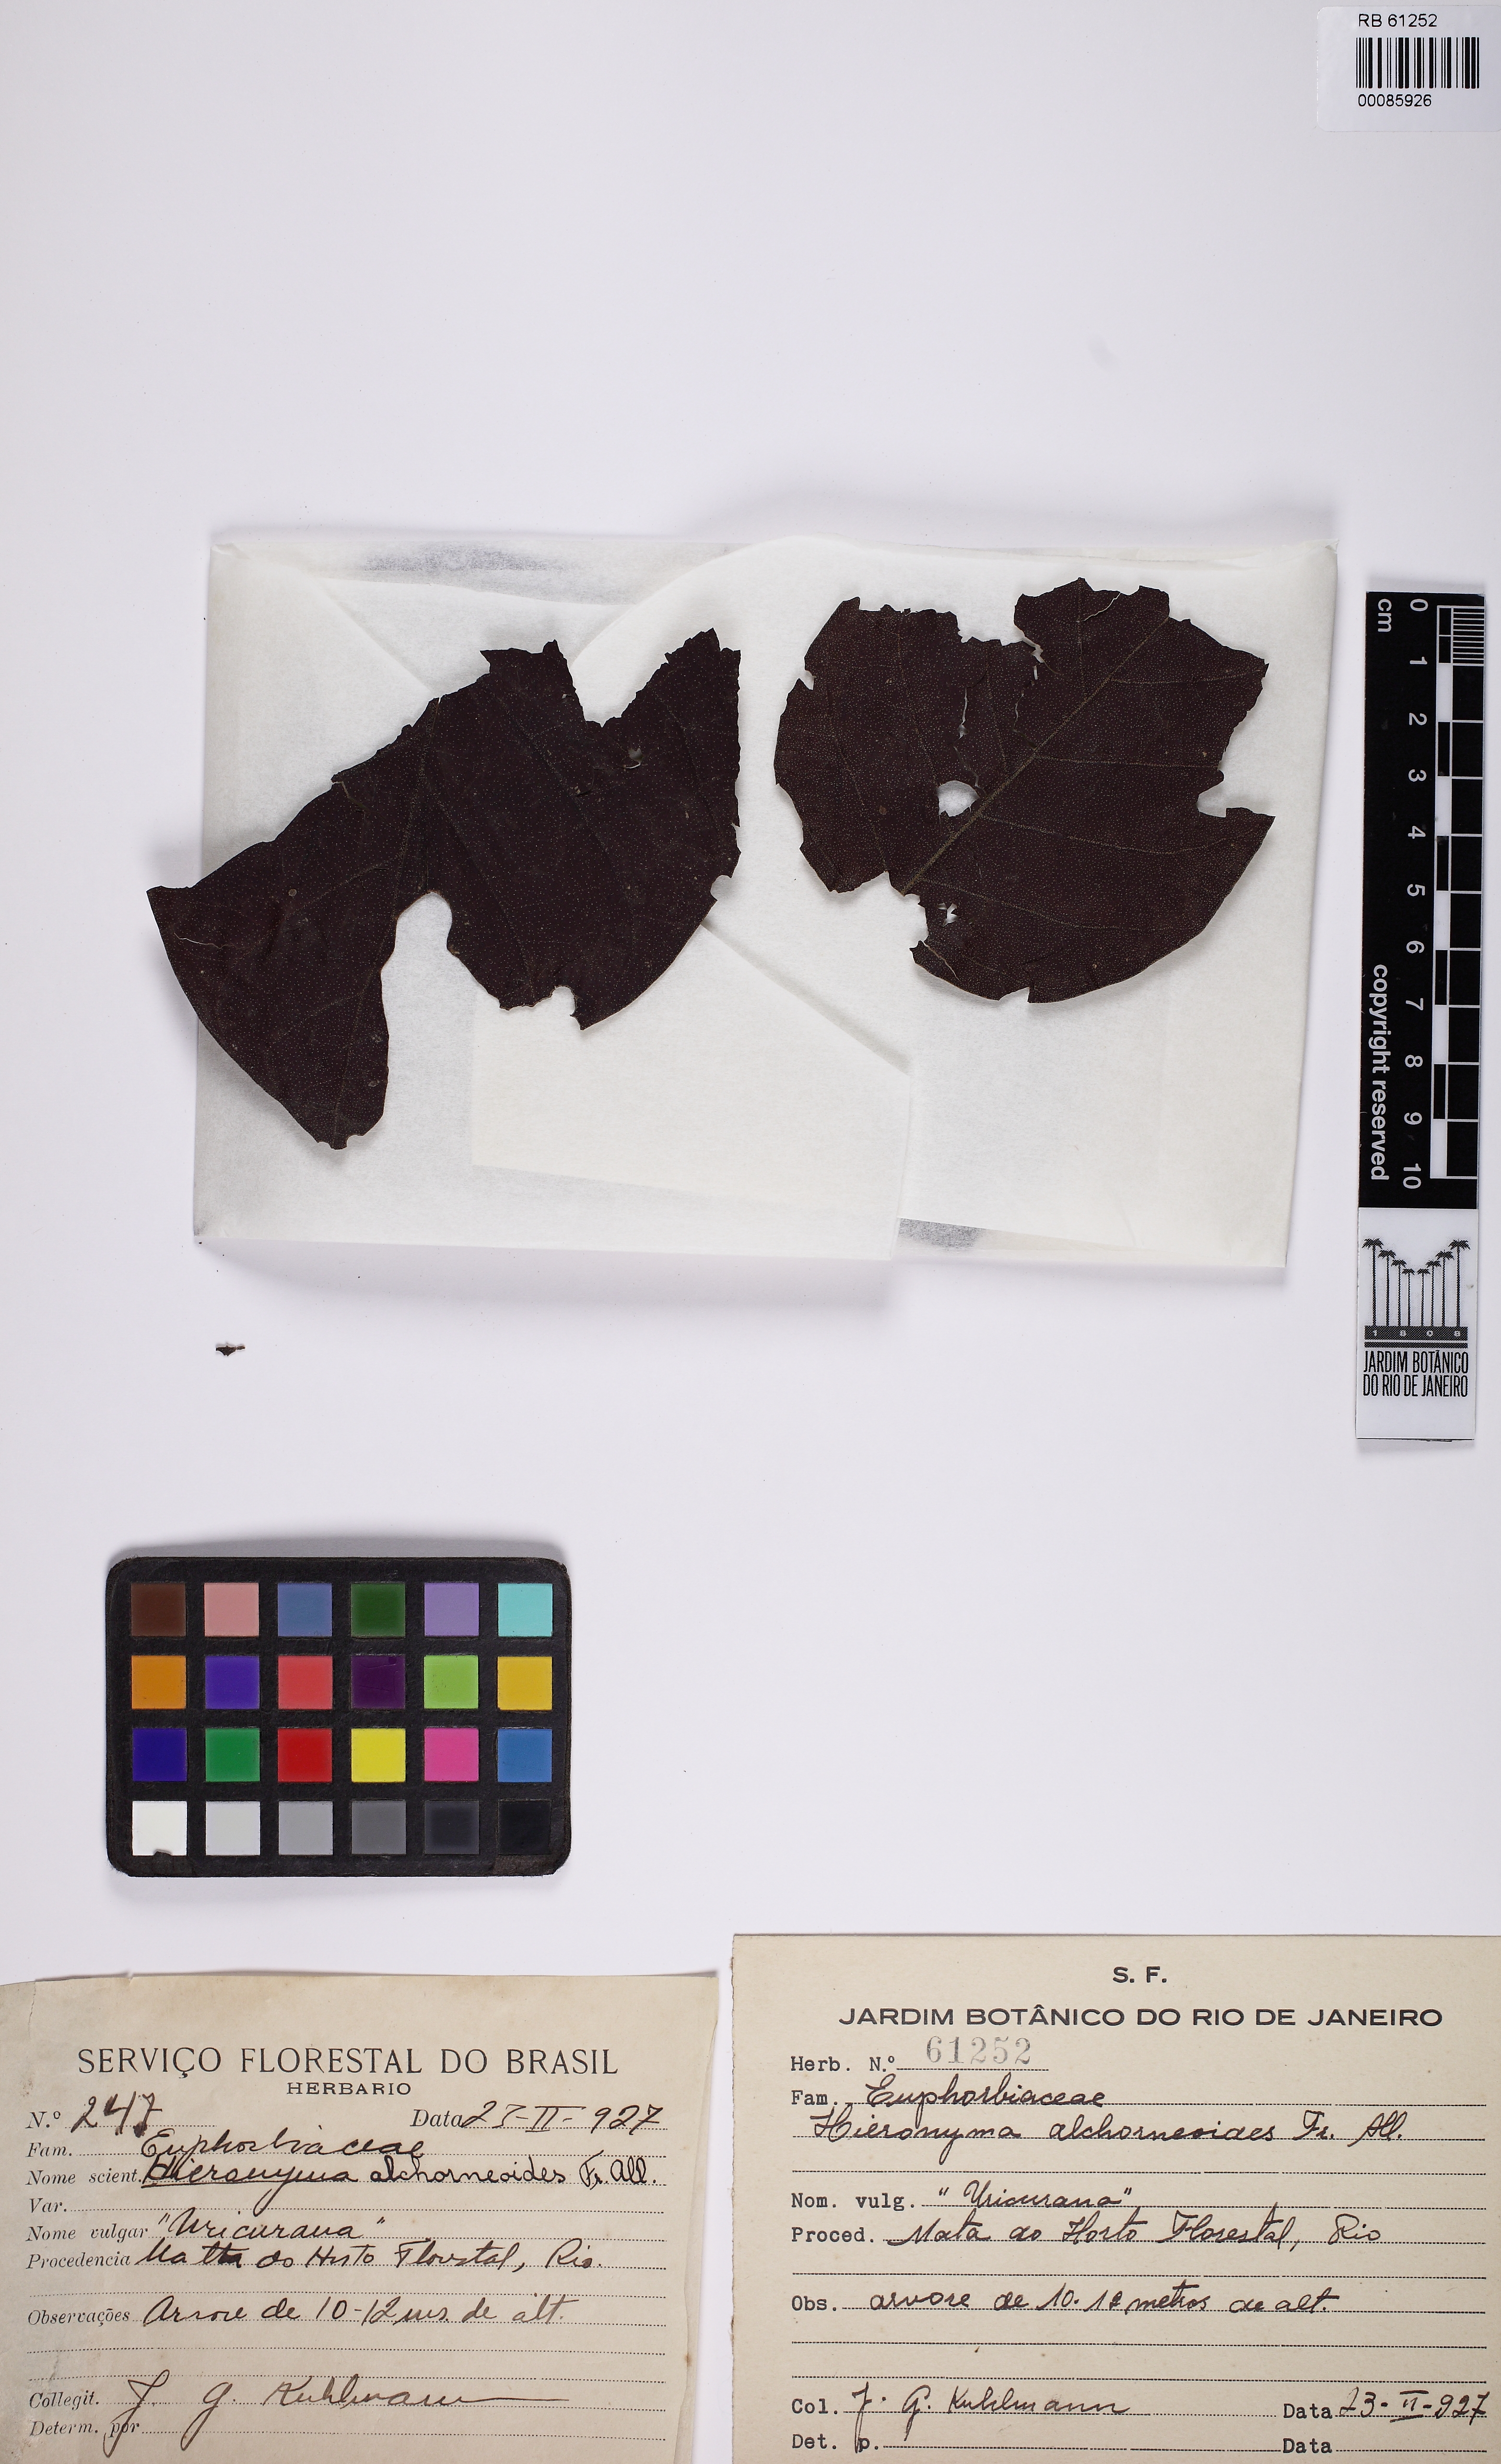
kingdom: Plantae
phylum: Tracheophyta
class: Magnoliopsida
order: Malpighiales
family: Phyllanthaceae
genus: Hieronyma
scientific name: Hieronyma alchorneoides
